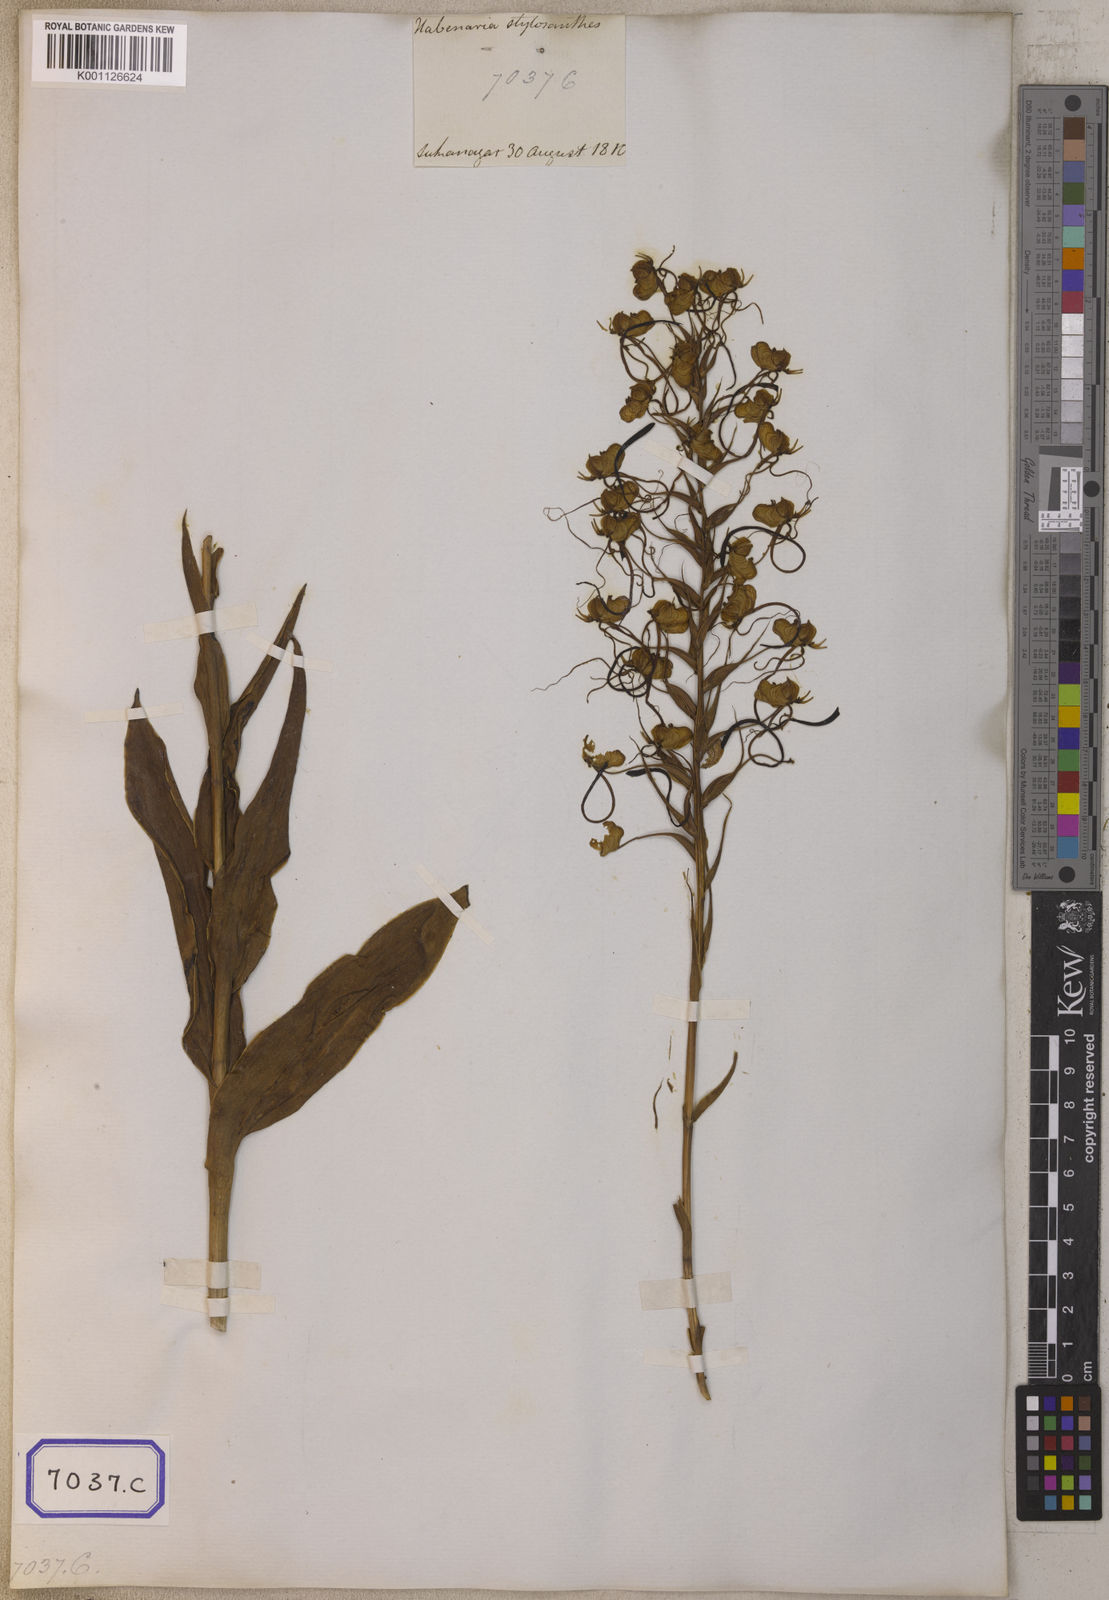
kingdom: Plantae
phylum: Tracheophyta
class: Liliopsida
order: Asparagales
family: Orchidaceae
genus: Platanthera
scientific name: Platanthera
